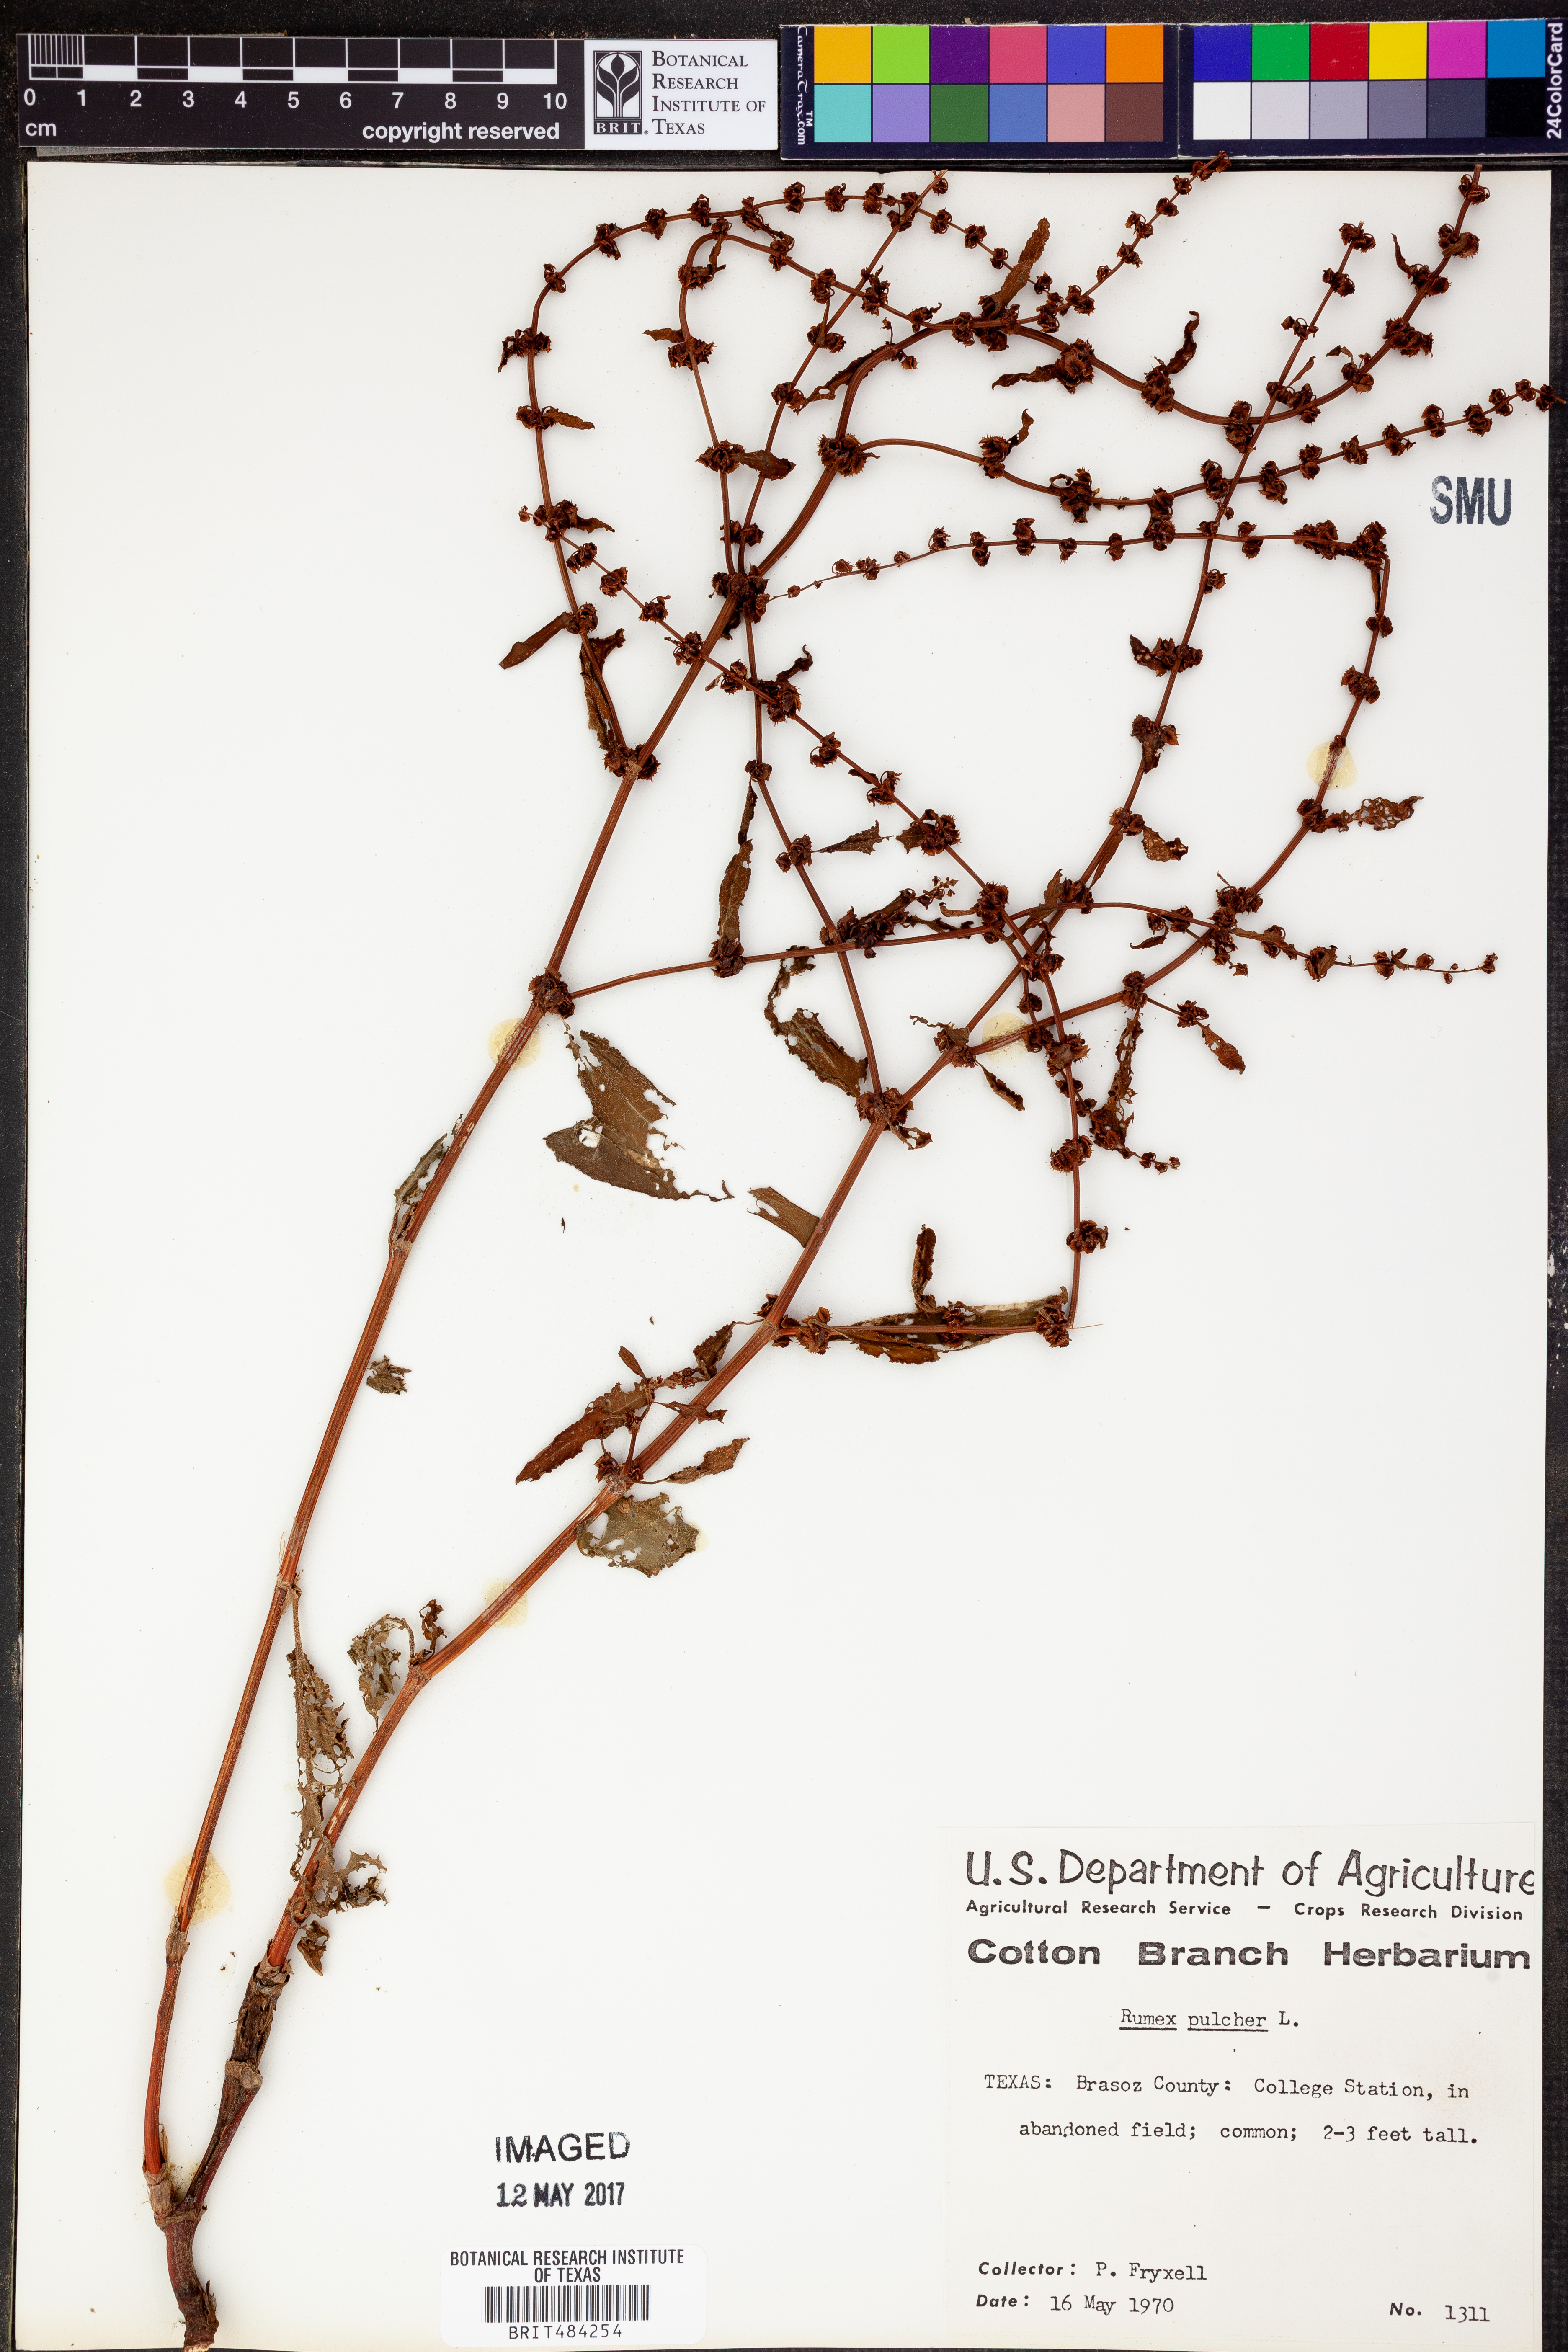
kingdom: Plantae
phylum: Tracheophyta
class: Magnoliopsida
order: Caryophyllales
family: Polygonaceae
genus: Rumex
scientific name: Rumex pulcher
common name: Fiddle dock
